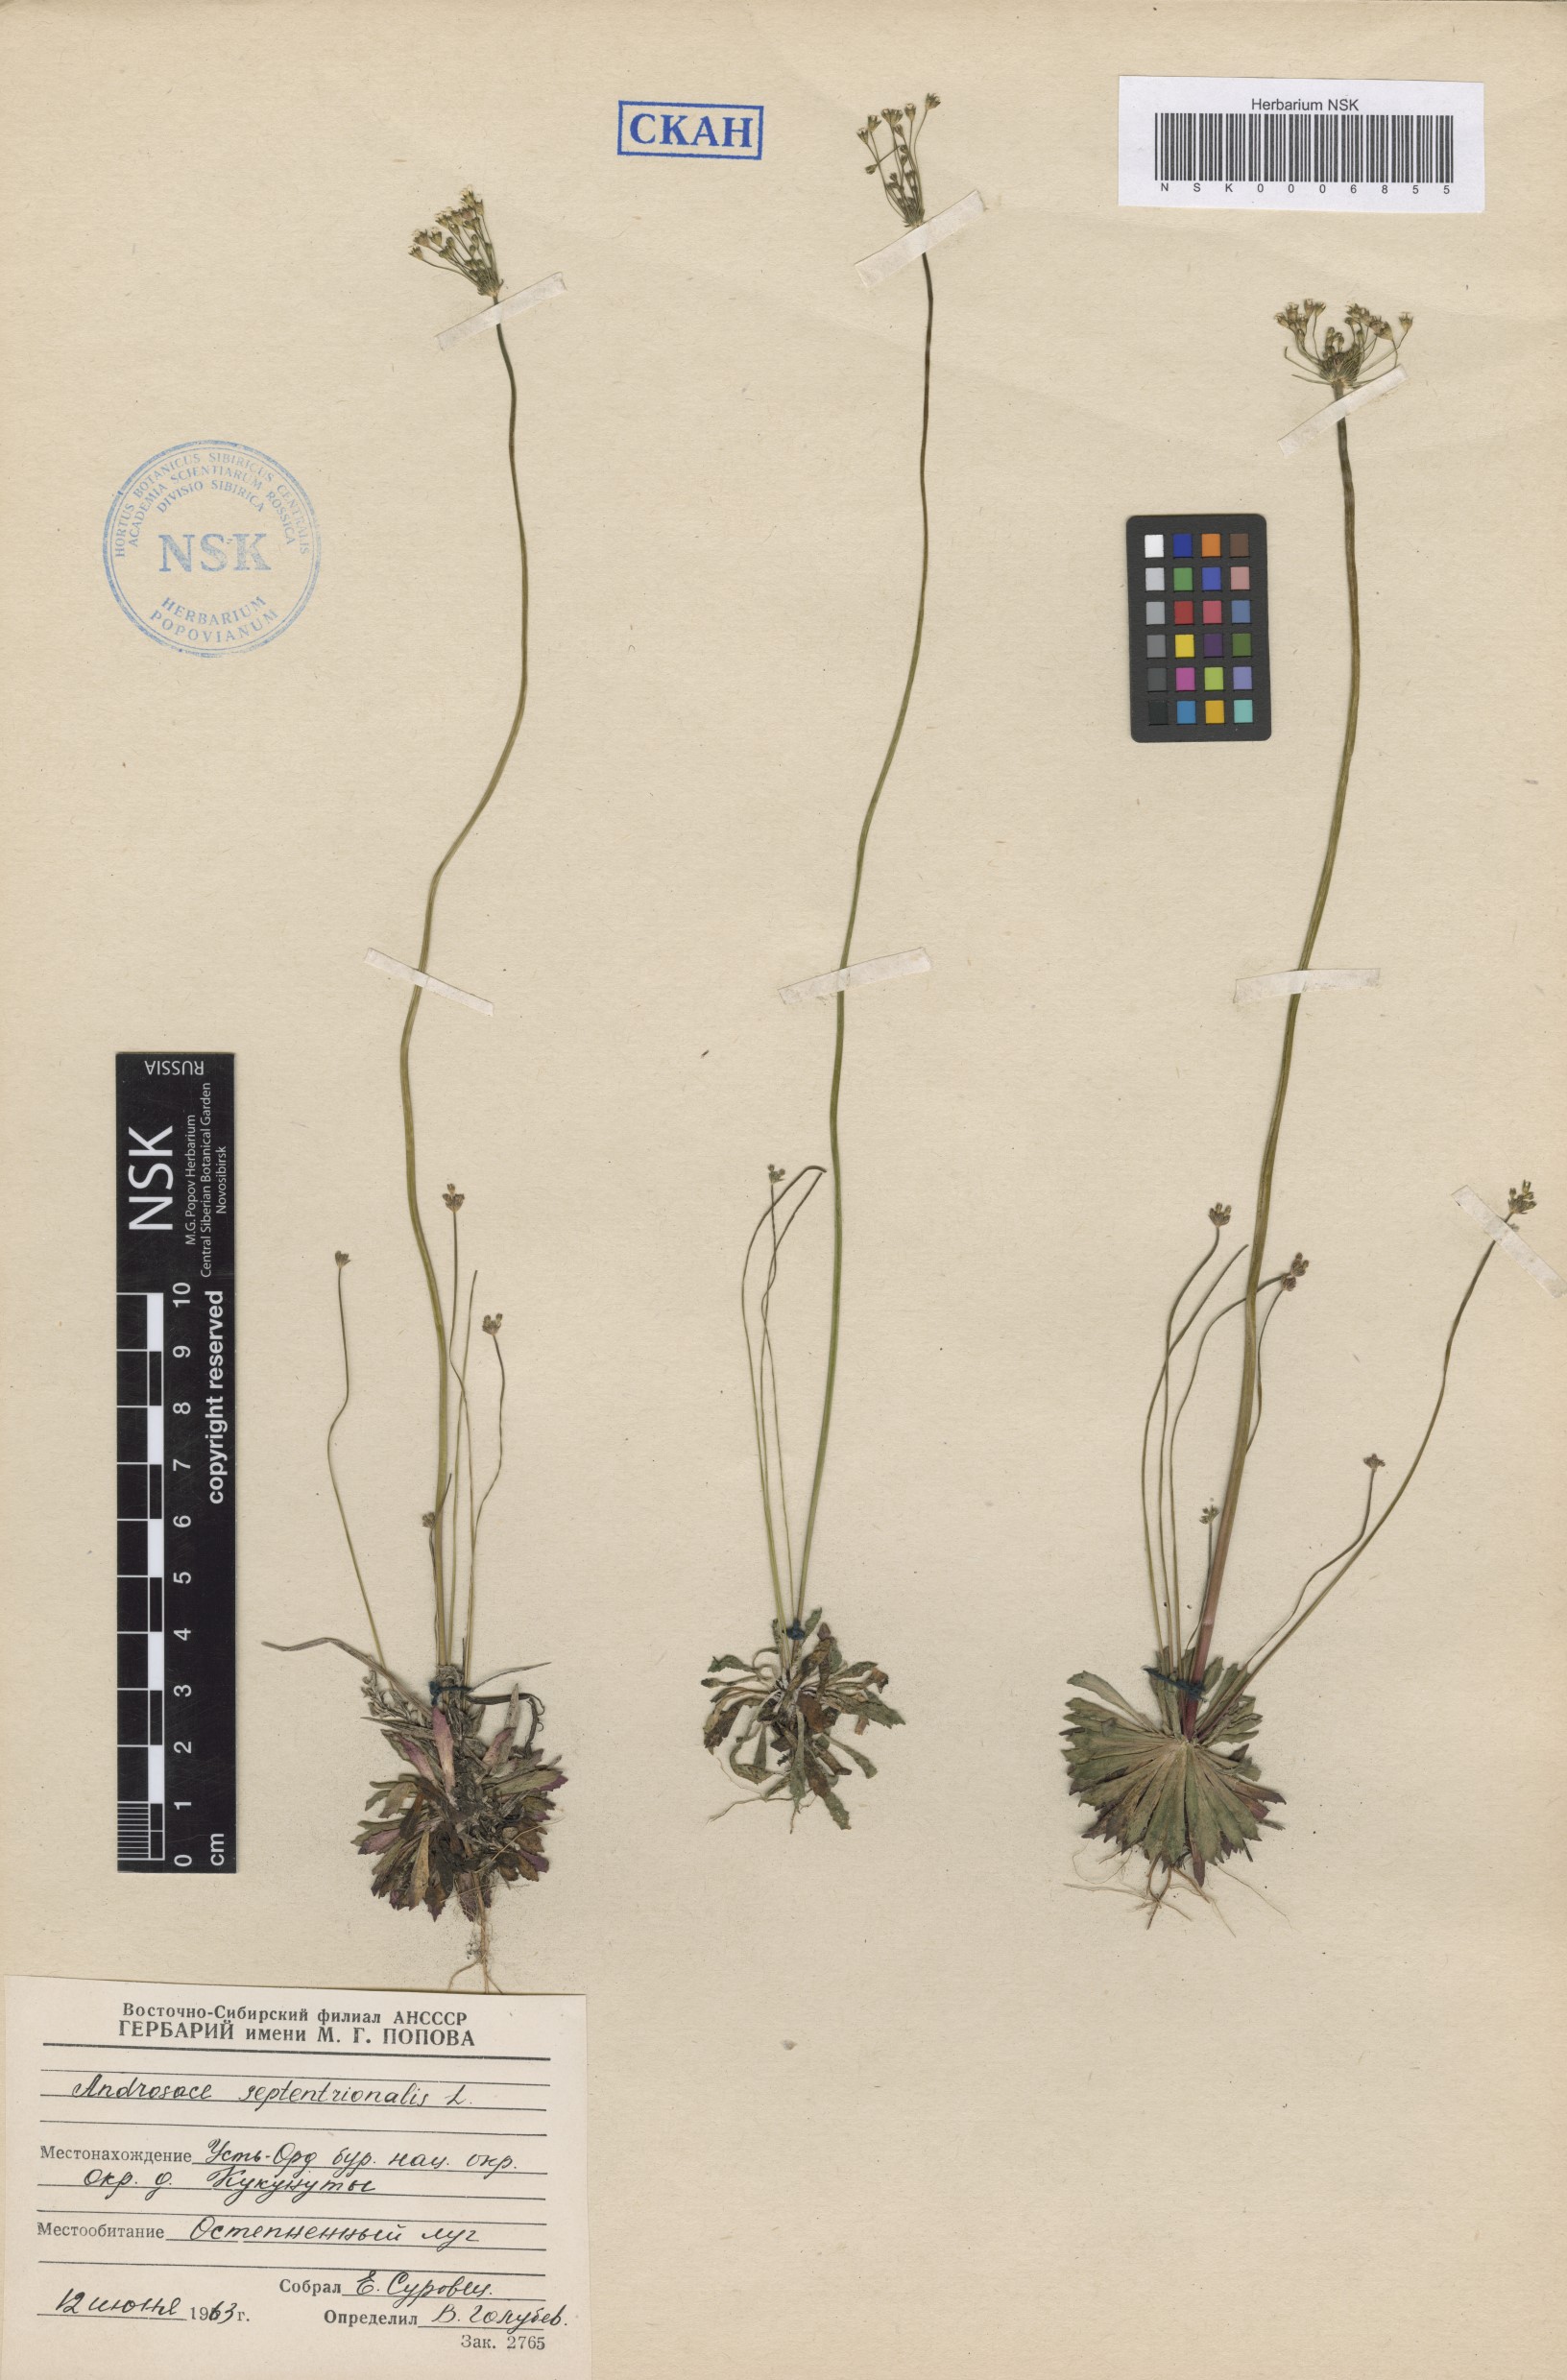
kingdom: Plantae
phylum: Tracheophyta
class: Magnoliopsida
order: Ericales
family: Primulaceae
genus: Androsace
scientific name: Androsace septentrionalis
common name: Hairy northern fairy-candelabra
